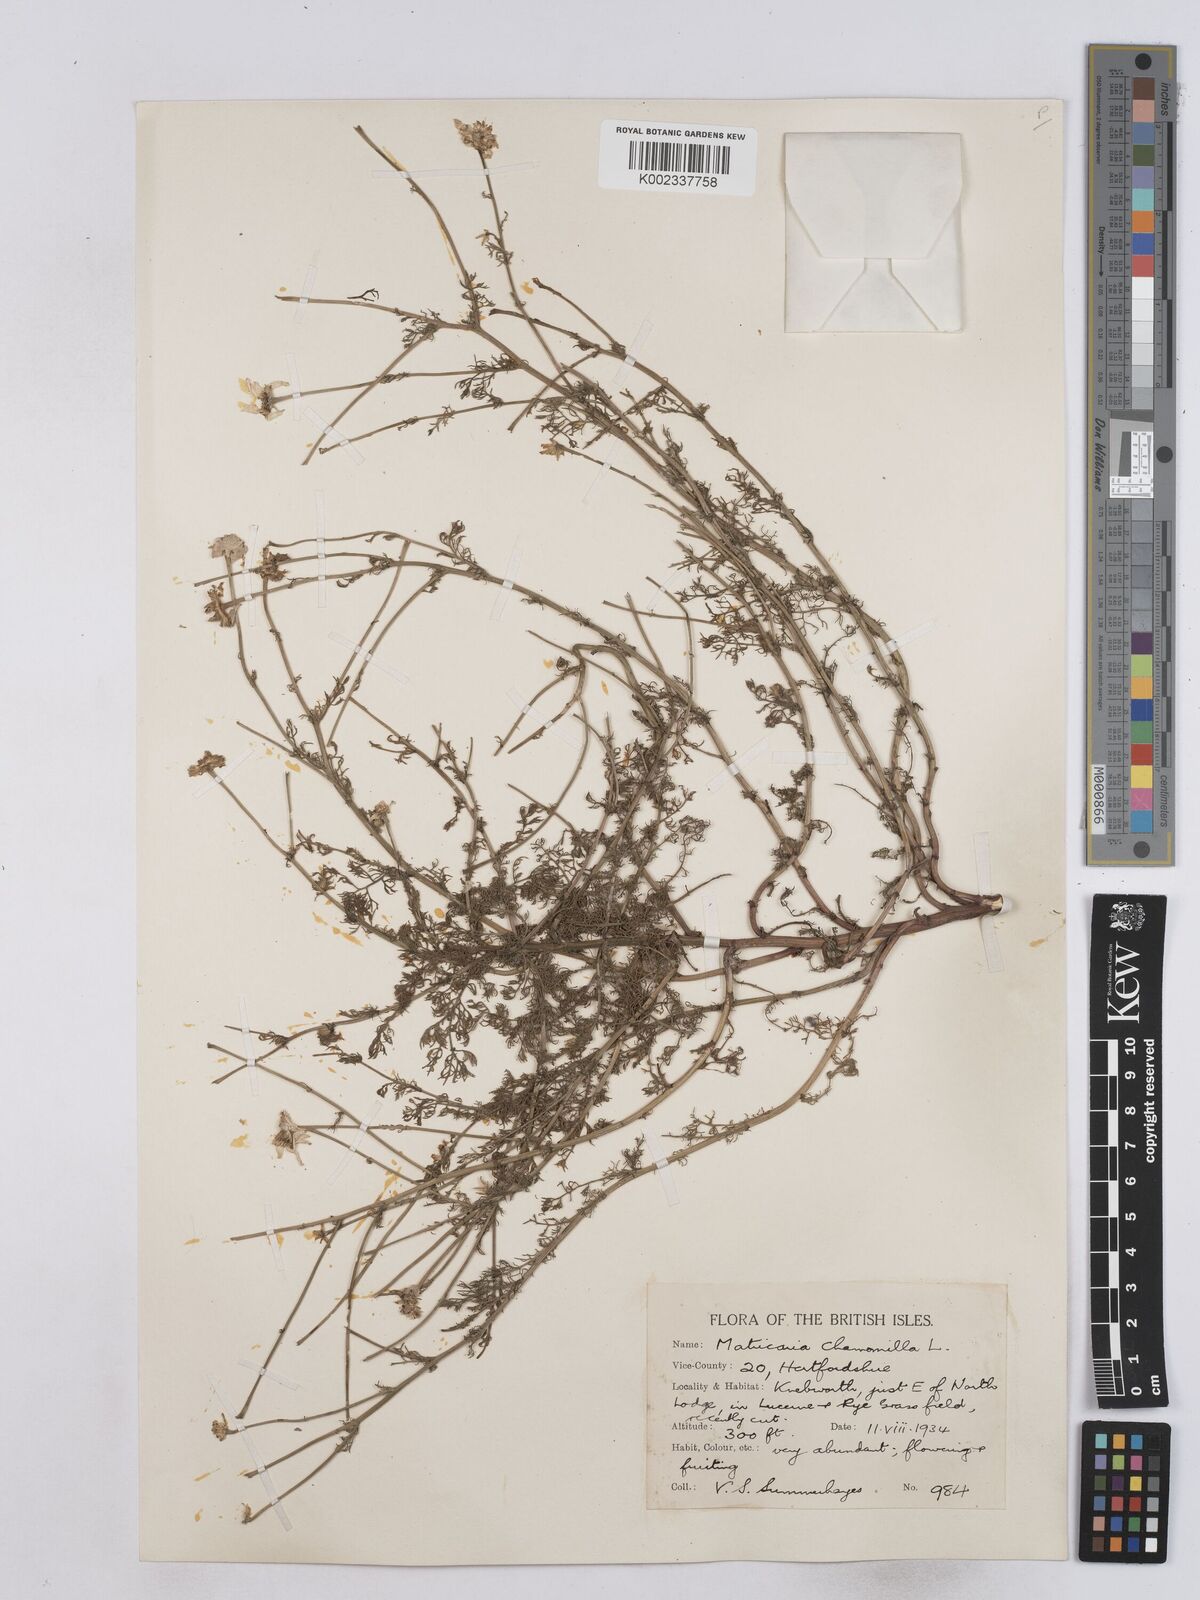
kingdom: Plantae
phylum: Tracheophyta
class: Magnoliopsida
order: Asterales
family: Asteraceae
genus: Matricaria
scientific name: Matricaria chamomilla
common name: Scented mayweed
